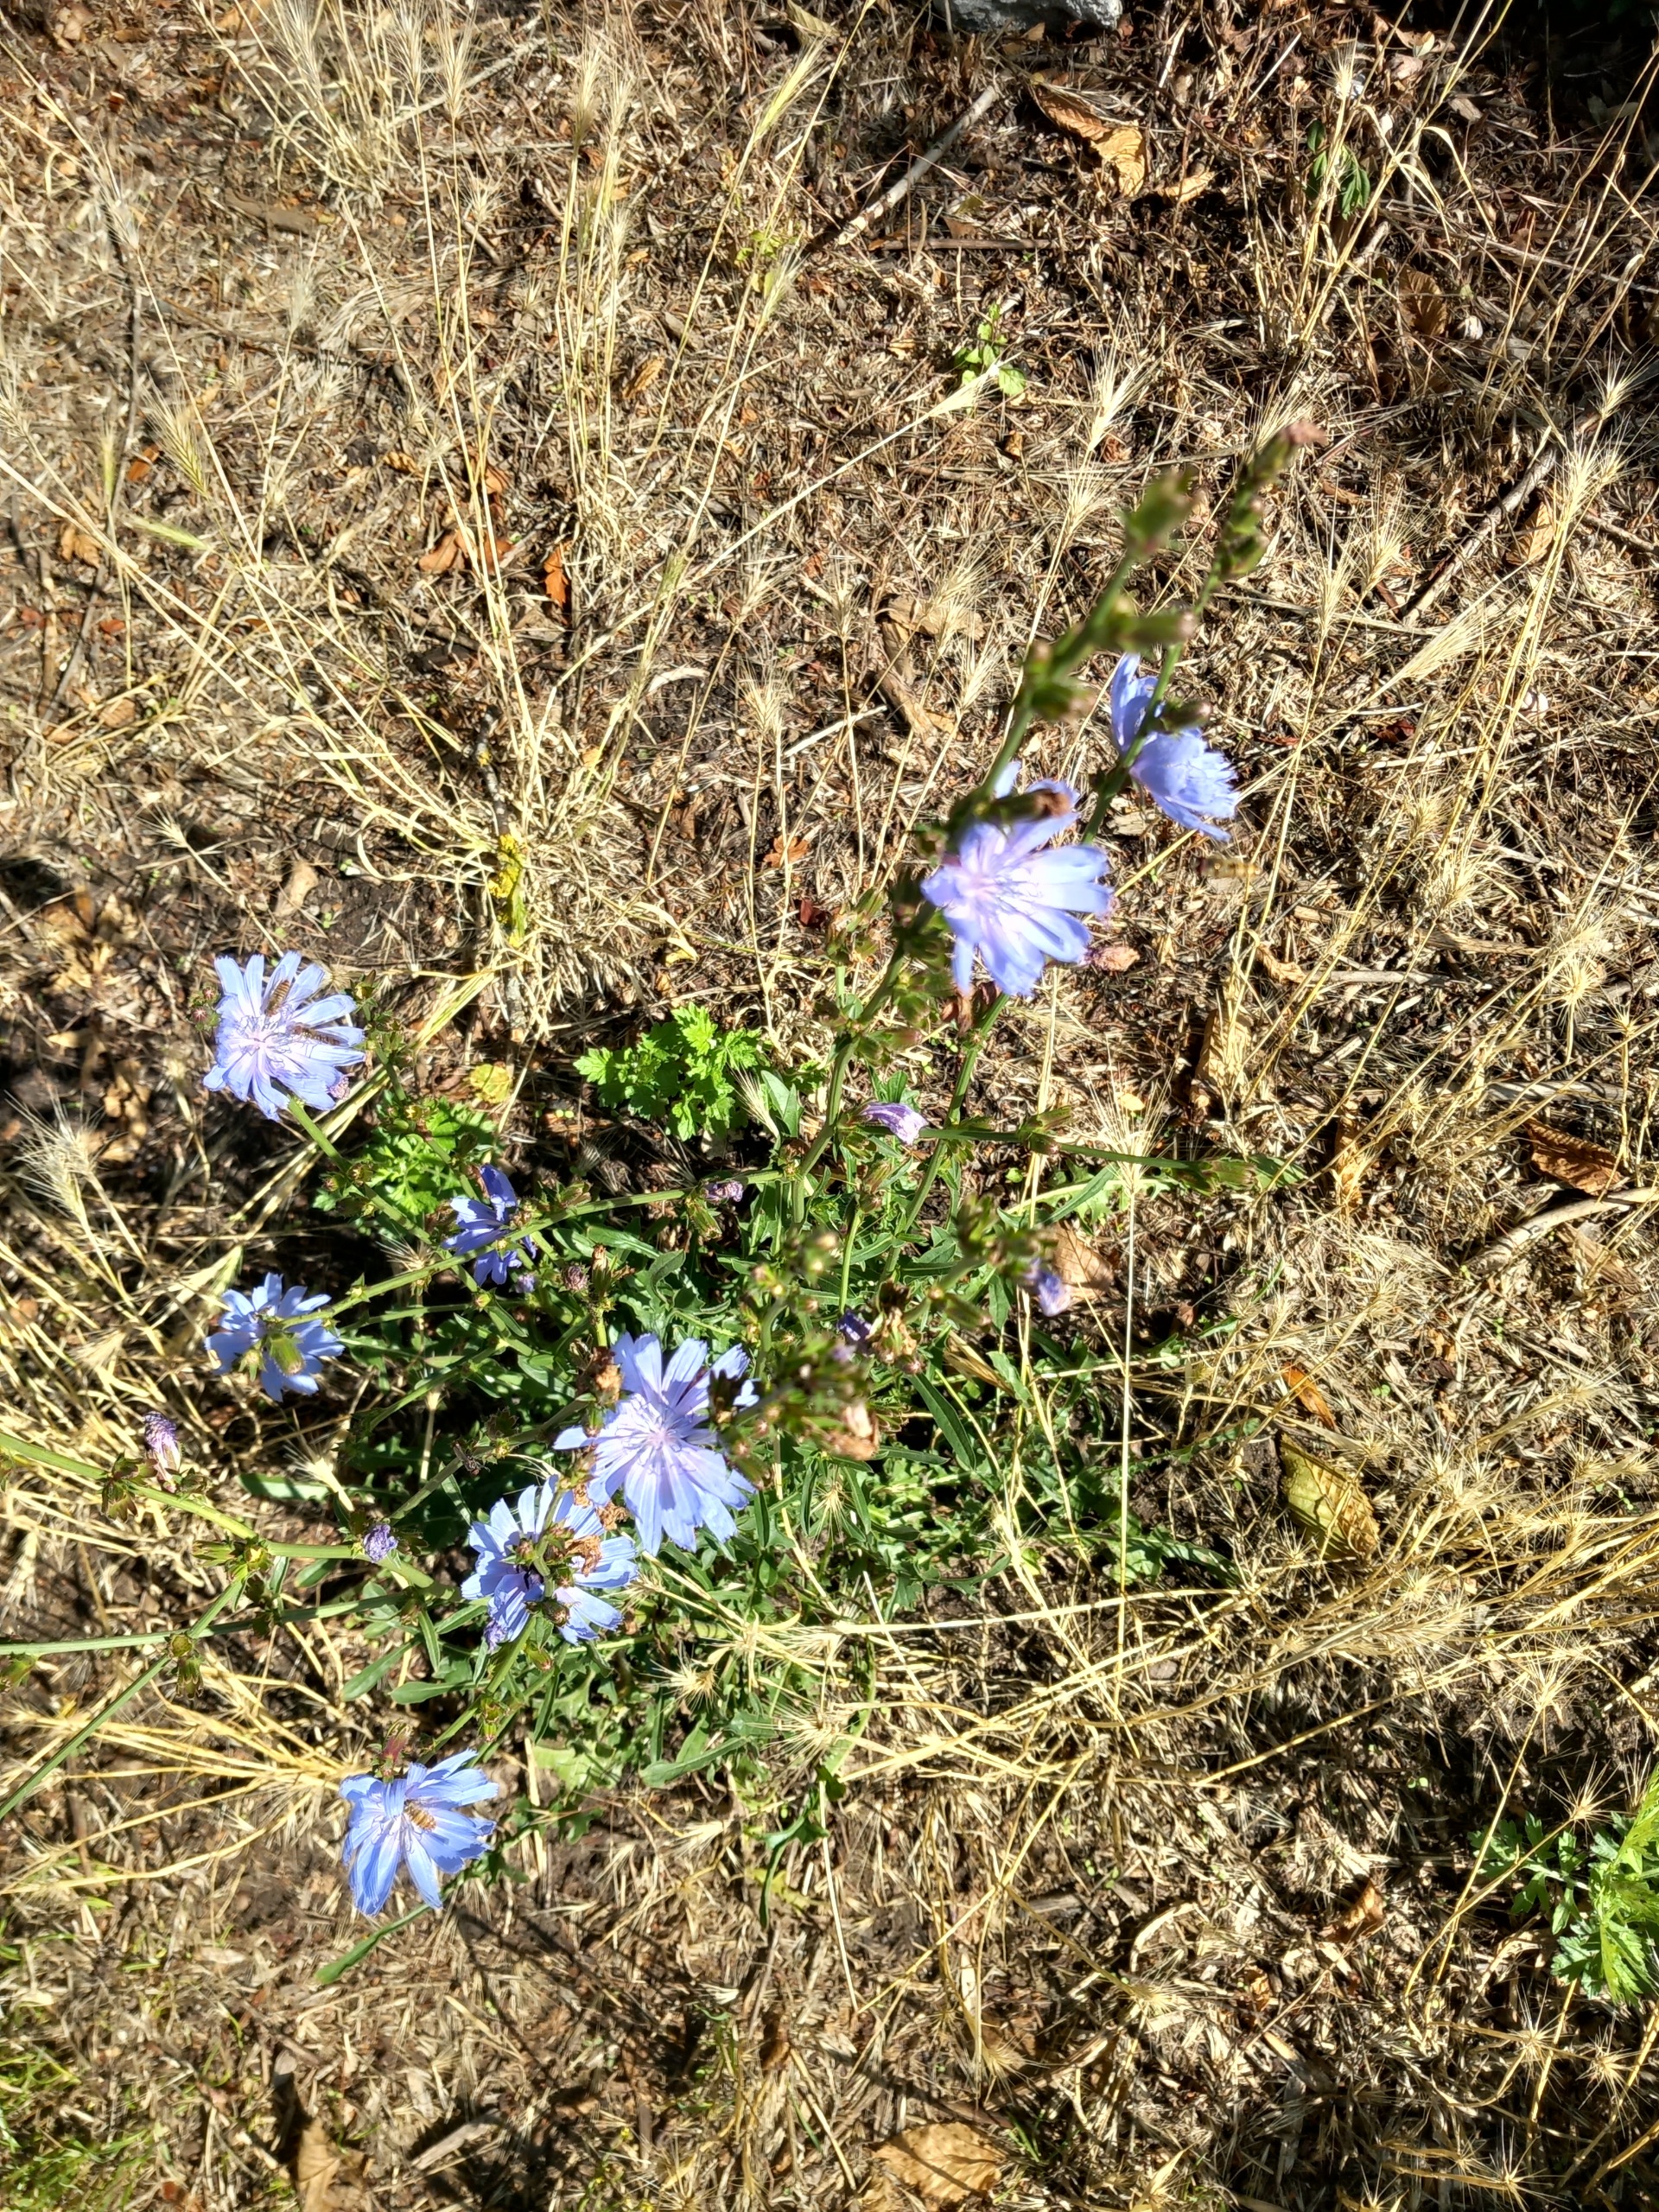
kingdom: Plantae
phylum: Tracheophyta
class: Magnoliopsida
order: Asterales
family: Asteraceae
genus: Cichorium
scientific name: Cichorium intybus
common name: Cikorie
